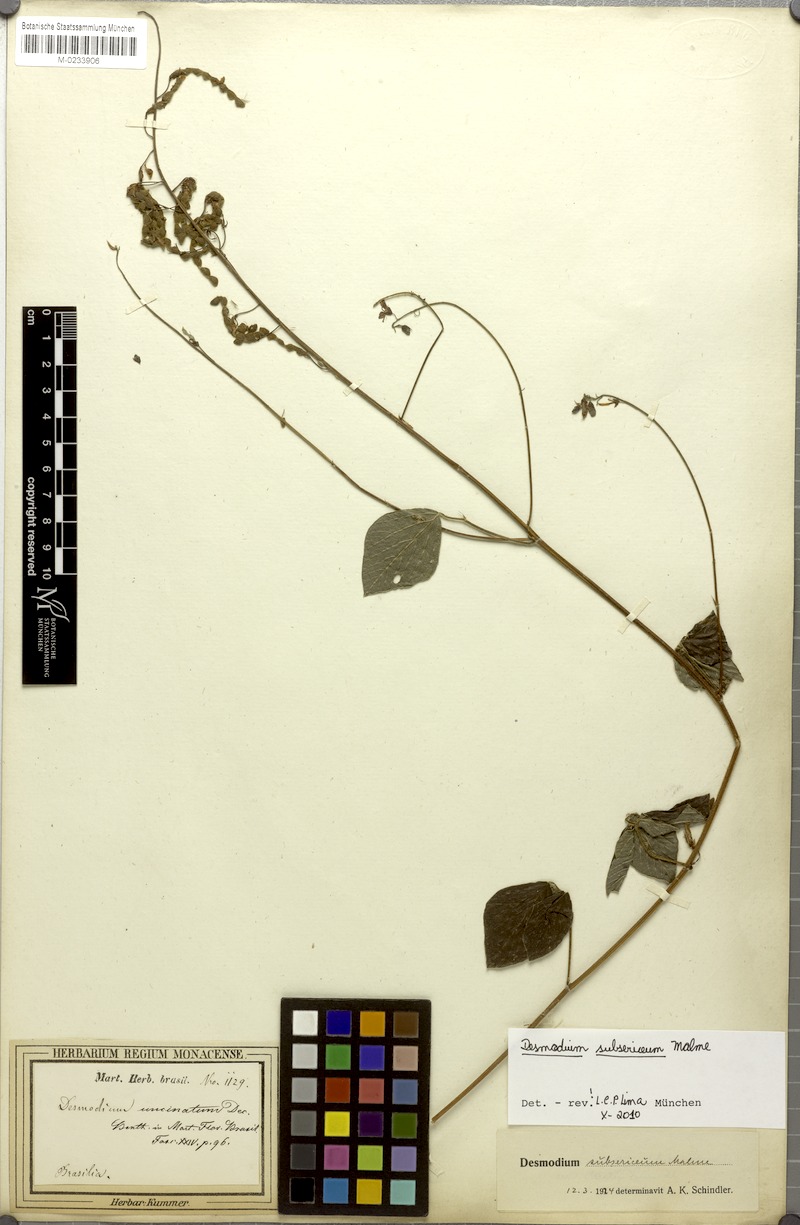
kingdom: Plantae
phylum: Tracheophyta
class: Magnoliopsida
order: Fabales
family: Fabaceae
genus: Desmodium
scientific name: Desmodium subsericeum
